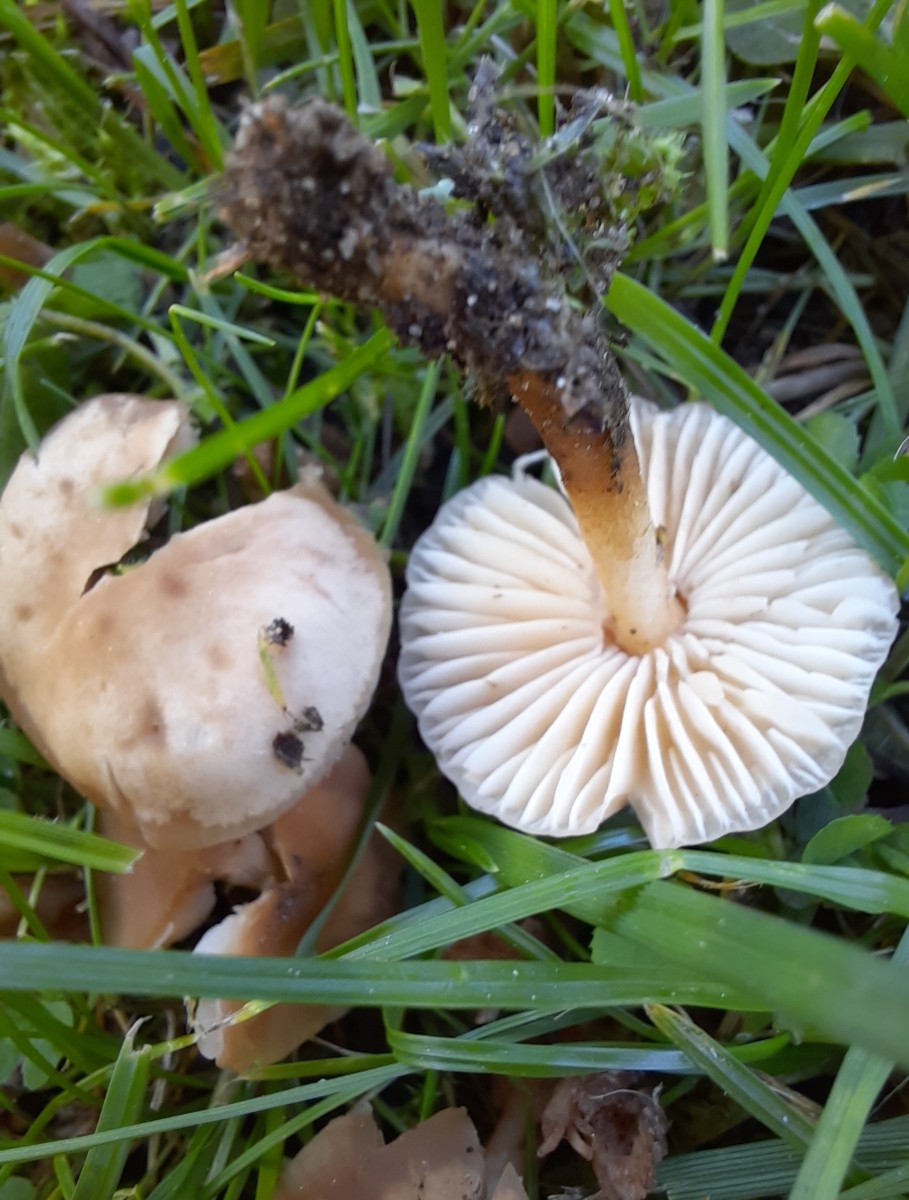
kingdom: Fungi
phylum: Basidiomycota
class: Agaricomycetes
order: Agaricales
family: Marasmiaceae
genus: Marasmius
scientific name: Marasmius oreades
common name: elledans-bruskhat
